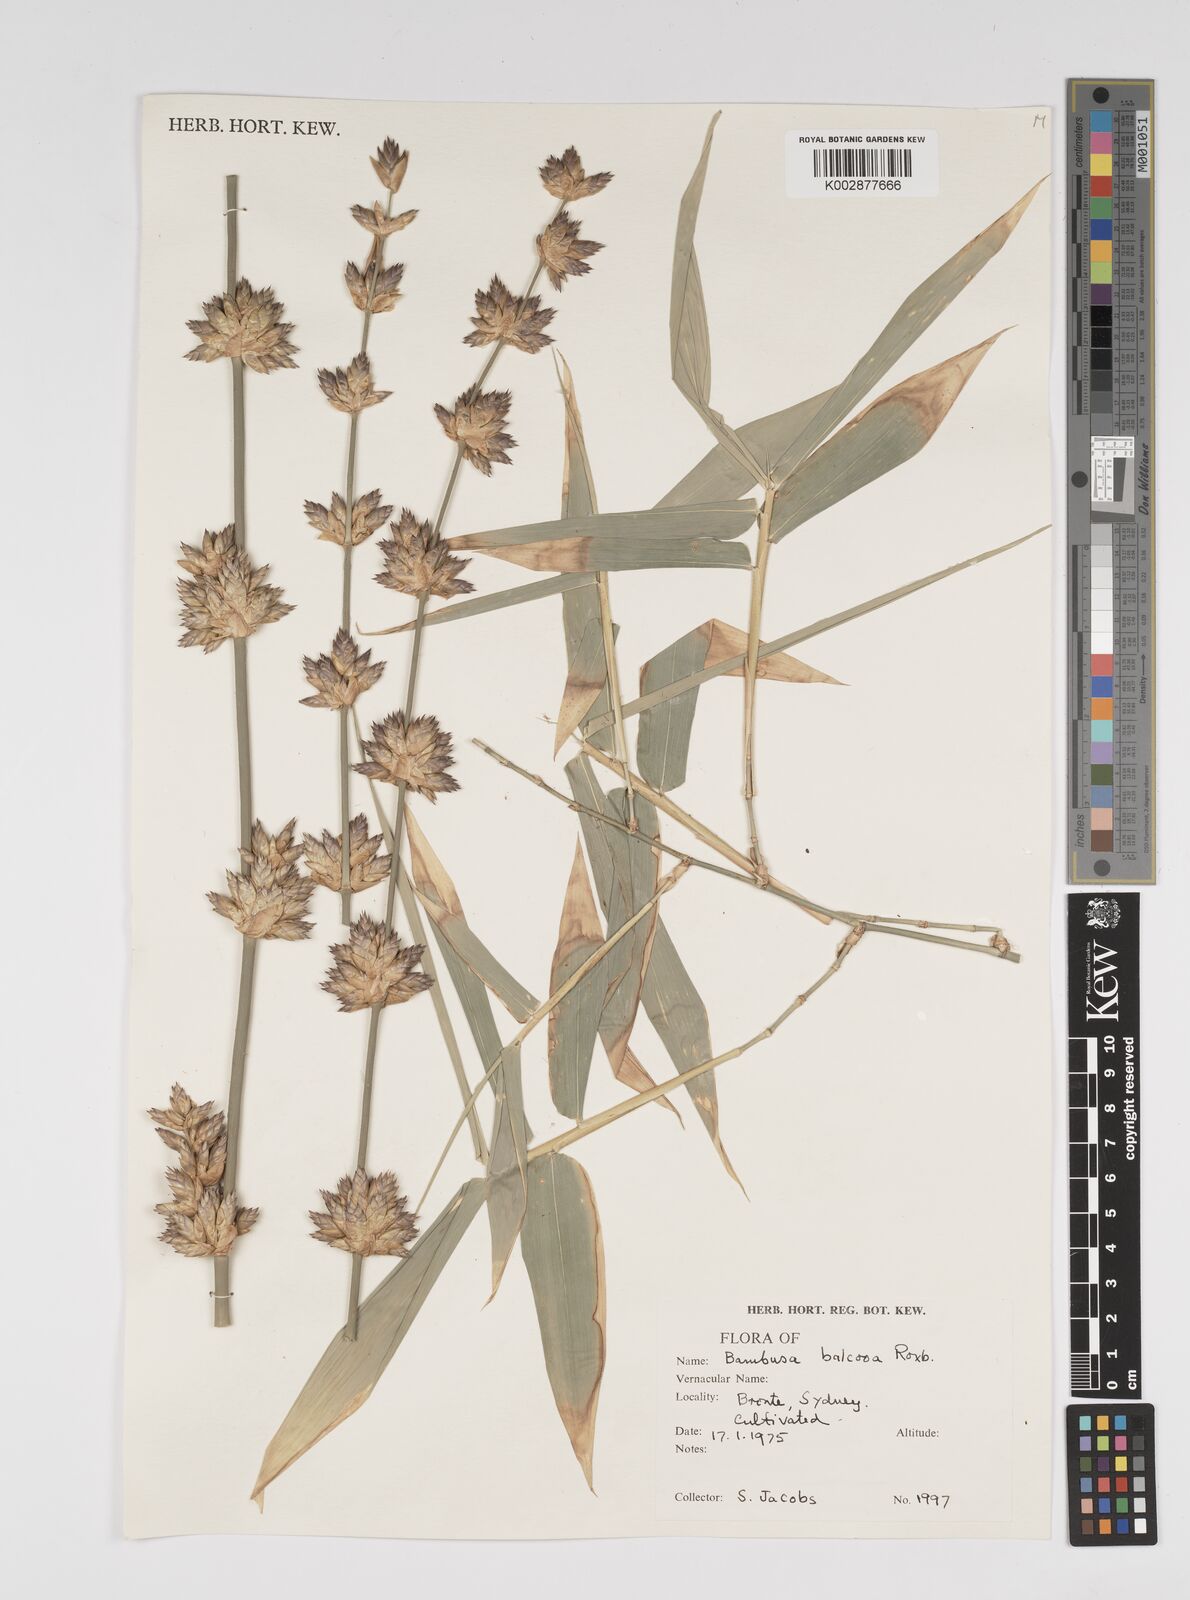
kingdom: Plantae
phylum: Tracheophyta
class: Liliopsida
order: Poales
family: Poaceae
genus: Bambusa
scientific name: Bambusa balcooa
